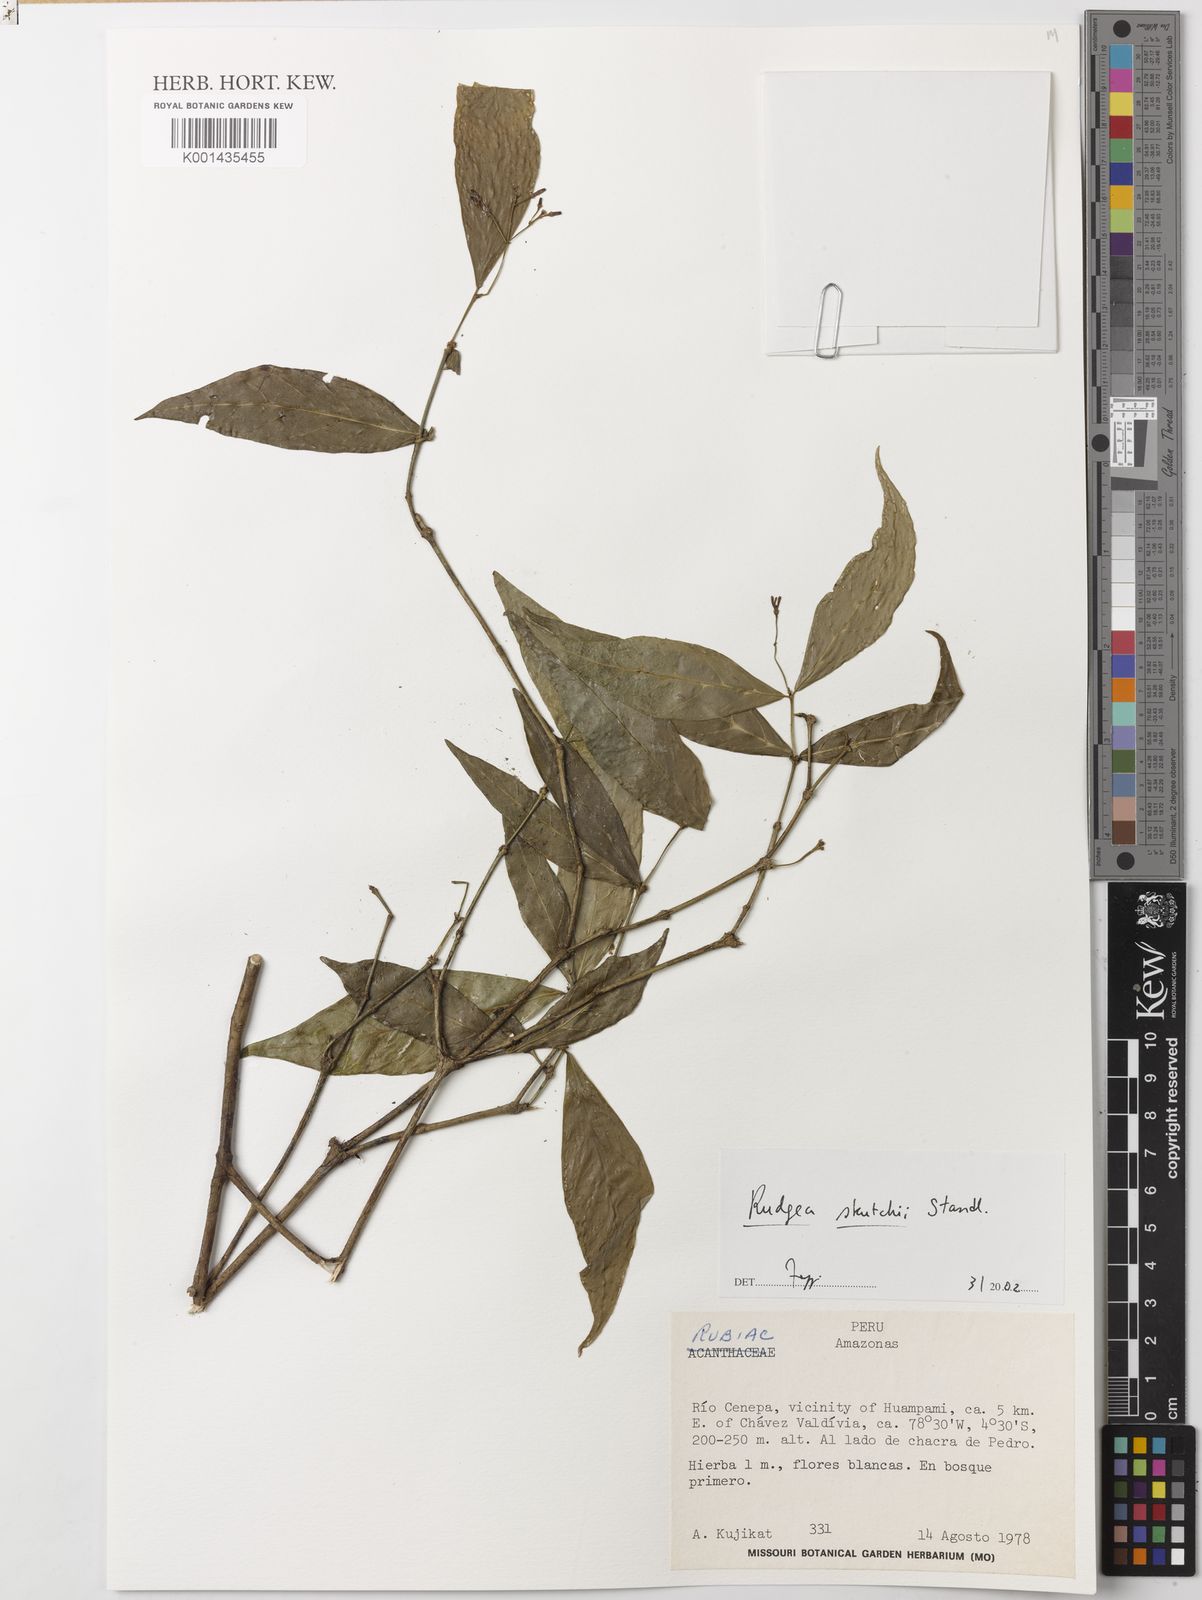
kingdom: Plantae
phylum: Tracheophyta
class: Magnoliopsida
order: Gentianales
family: Rubiaceae
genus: Rudgea
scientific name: Rudgea skutchii
